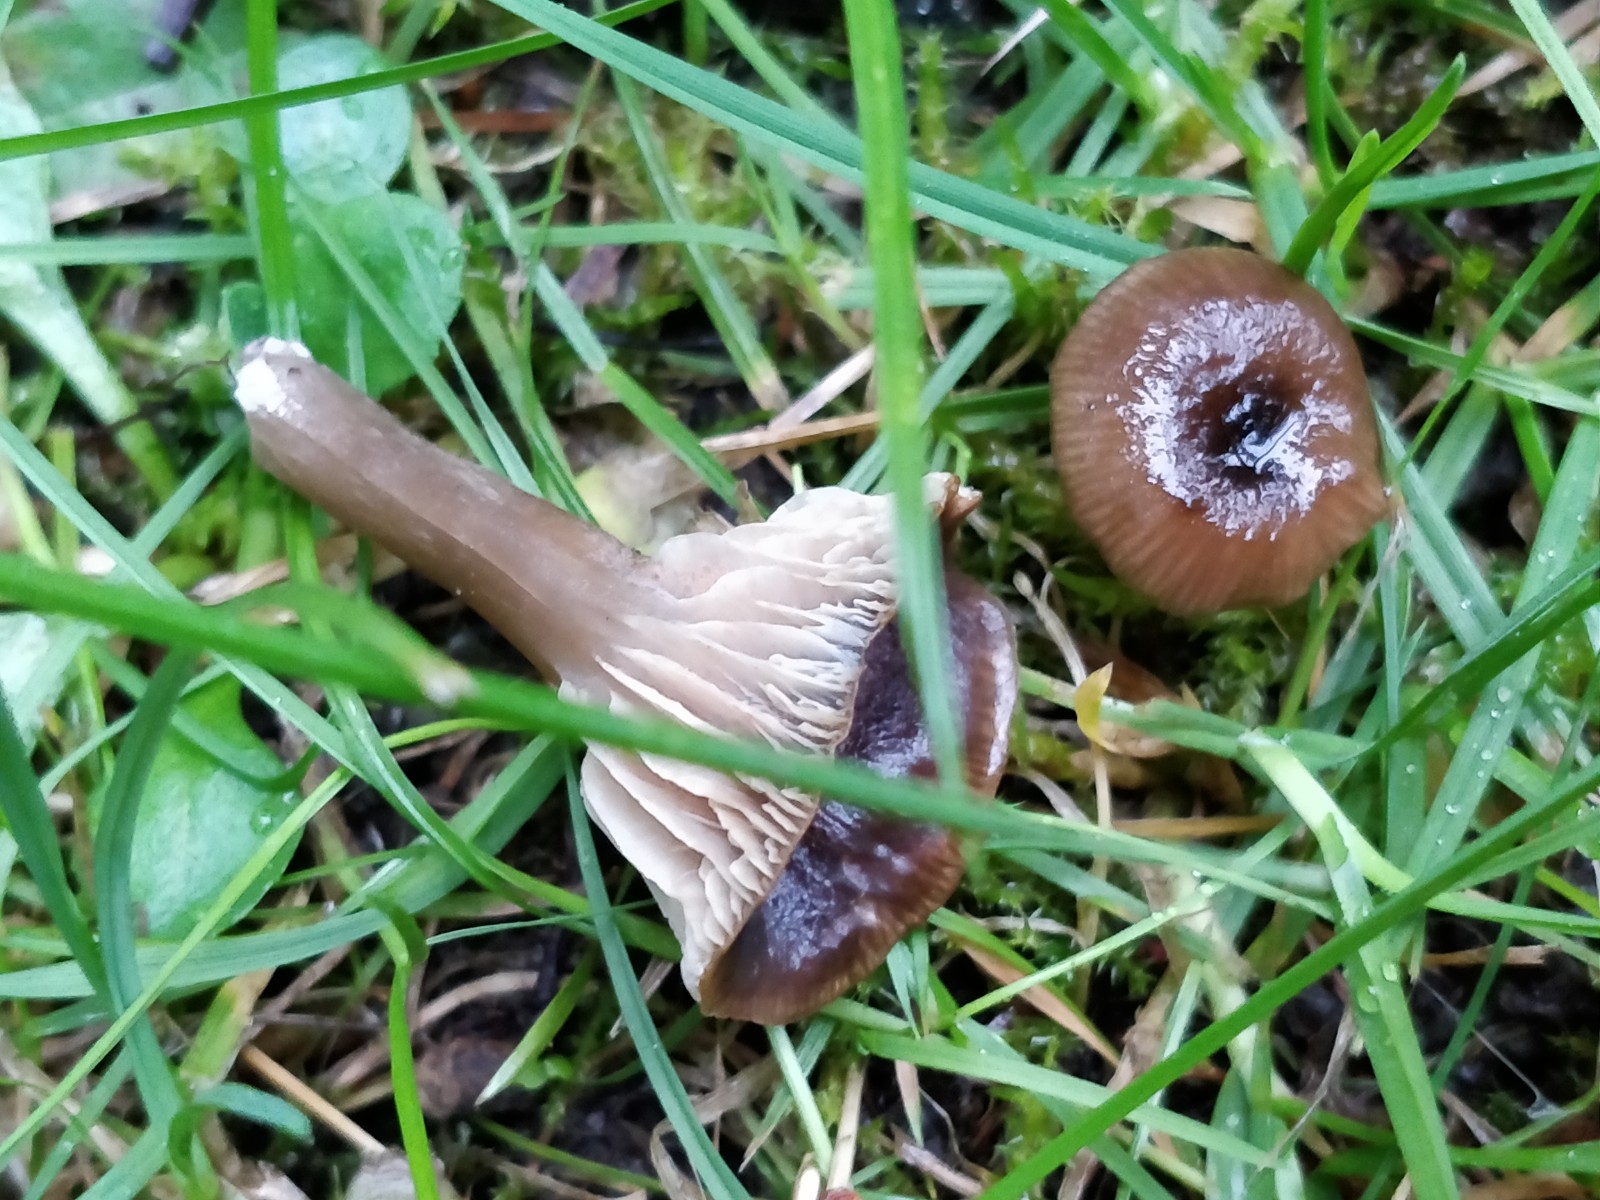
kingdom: Fungi
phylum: Basidiomycota
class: Agaricomycetes
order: Agaricales
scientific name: Agaricales
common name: champignonordenen
